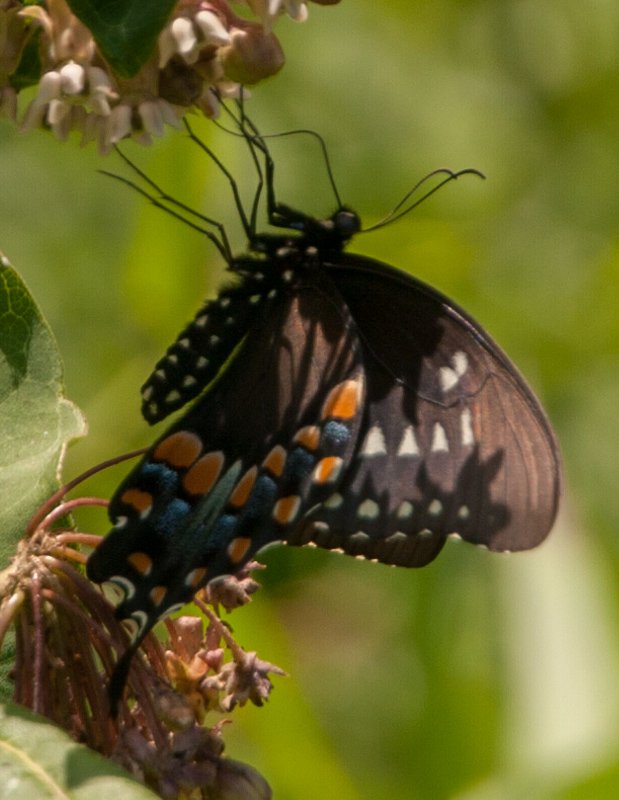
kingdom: Animalia
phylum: Arthropoda
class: Insecta
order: Lepidoptera
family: Papilionidae
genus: Pterourus
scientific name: Pterourus troilus
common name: Spicebush Swallowtail
